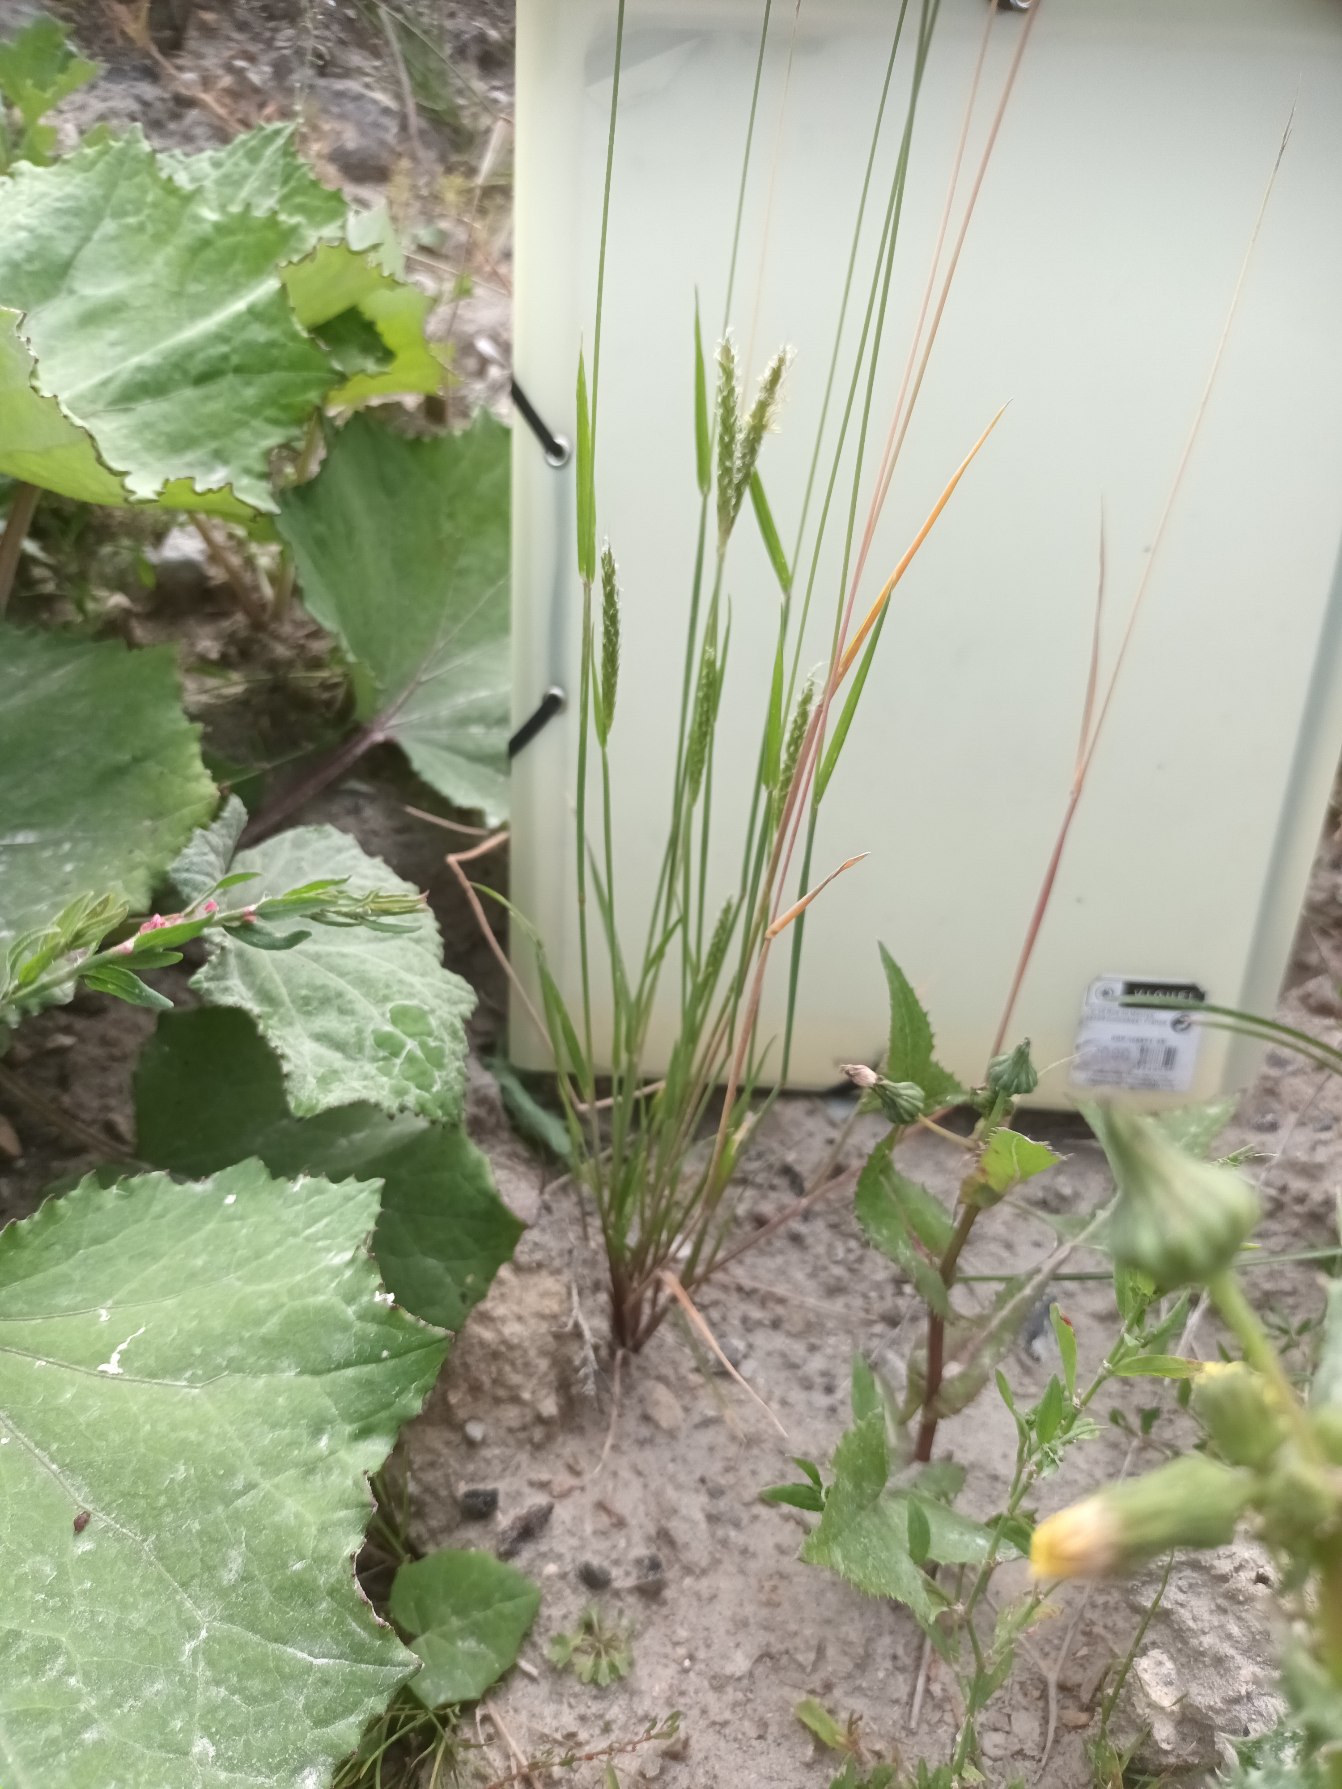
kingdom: Plantae
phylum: Tracheophyta
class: Liliopsida
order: Poales
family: Poaceae
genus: Alopecurus
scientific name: Alopecurus myosuroides
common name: Ager-rævehale
